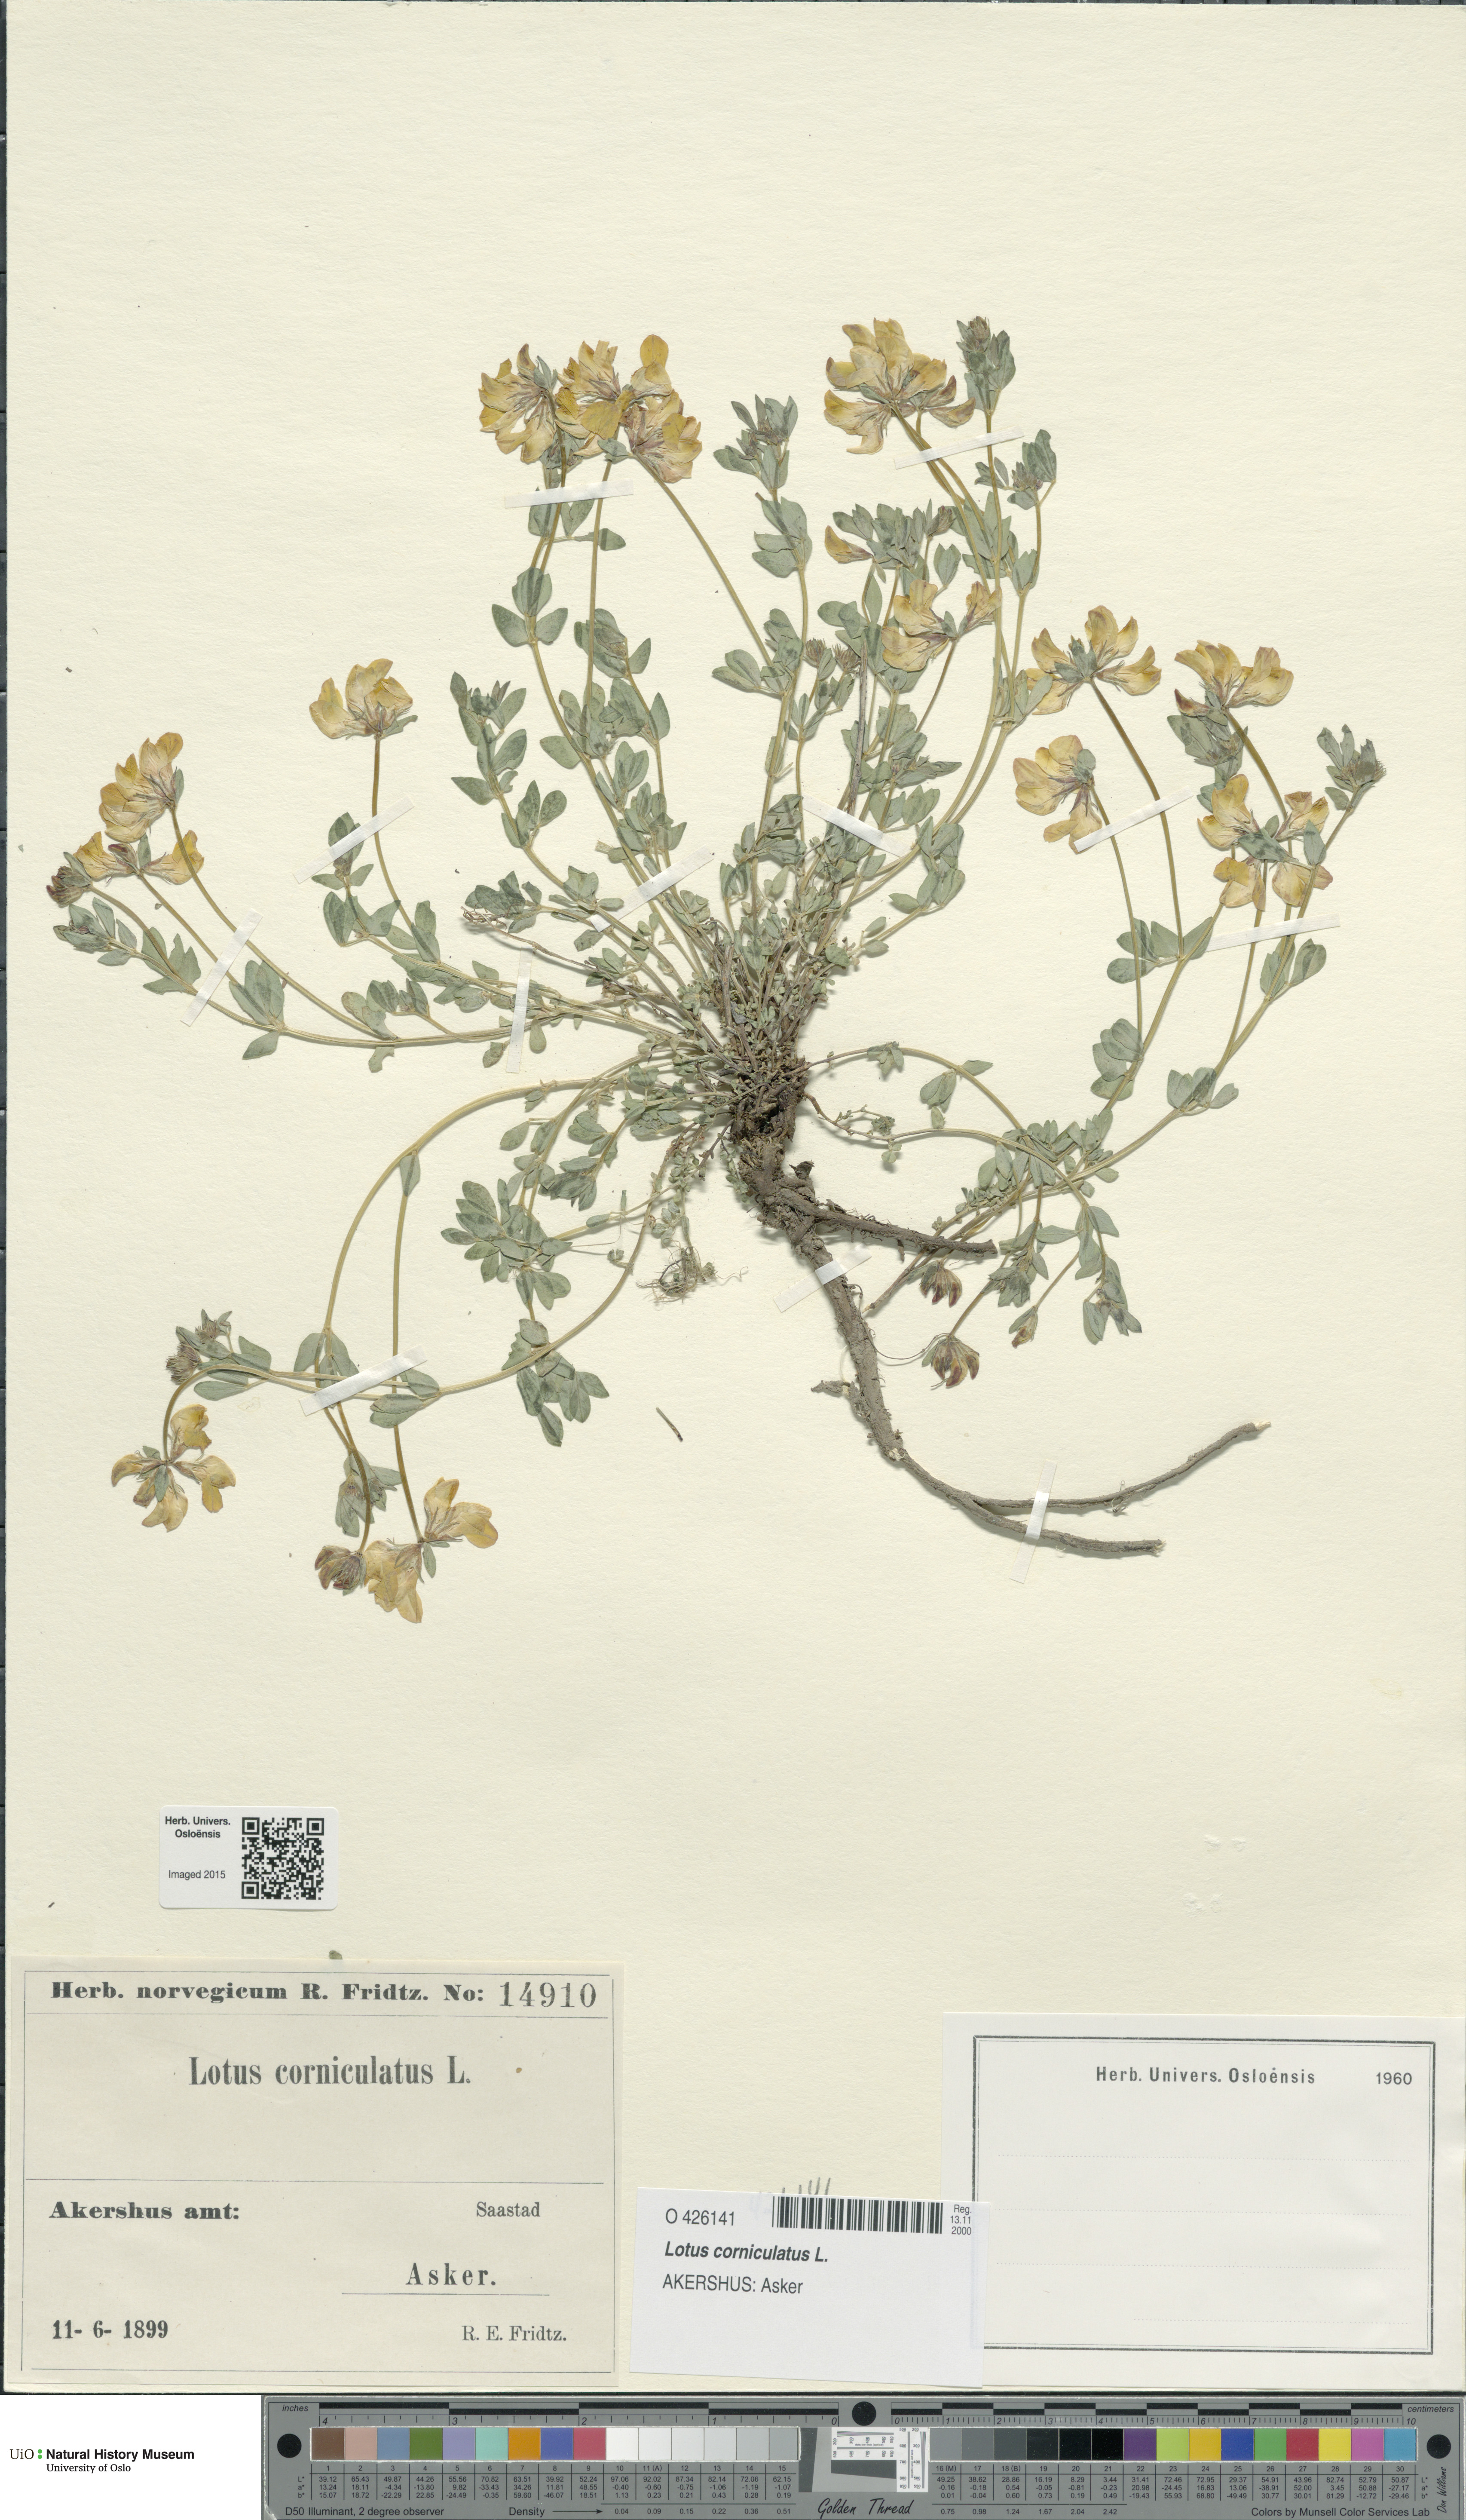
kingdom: Plantae
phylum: Tracheophyta
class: Magnoliopsida
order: Fabales
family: Fabaceae
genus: Lotus
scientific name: Lotus corniculatus
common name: Common bird's-foot-trefoil
